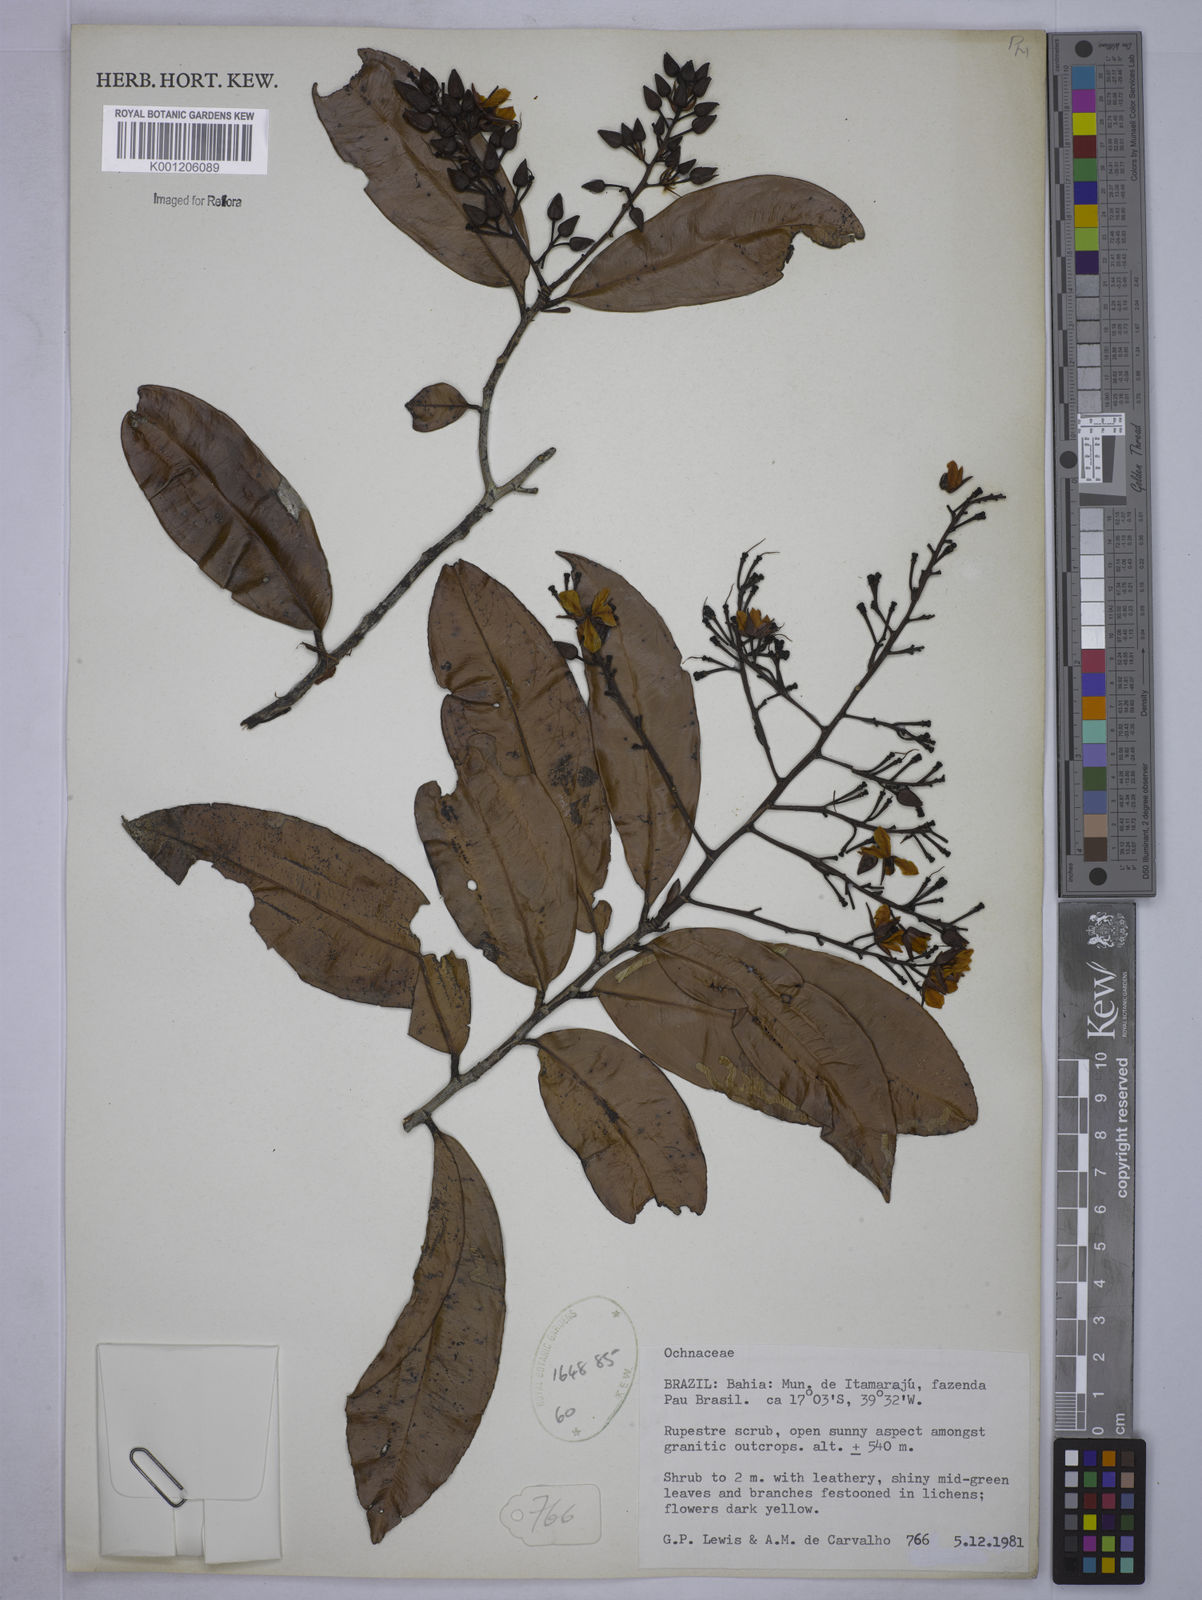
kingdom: Plantae
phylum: Tracheophyta
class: Magnoliopsida
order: Malpighiales
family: Ochnaceae
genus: Ouratea
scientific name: Ouratea hexasperma
